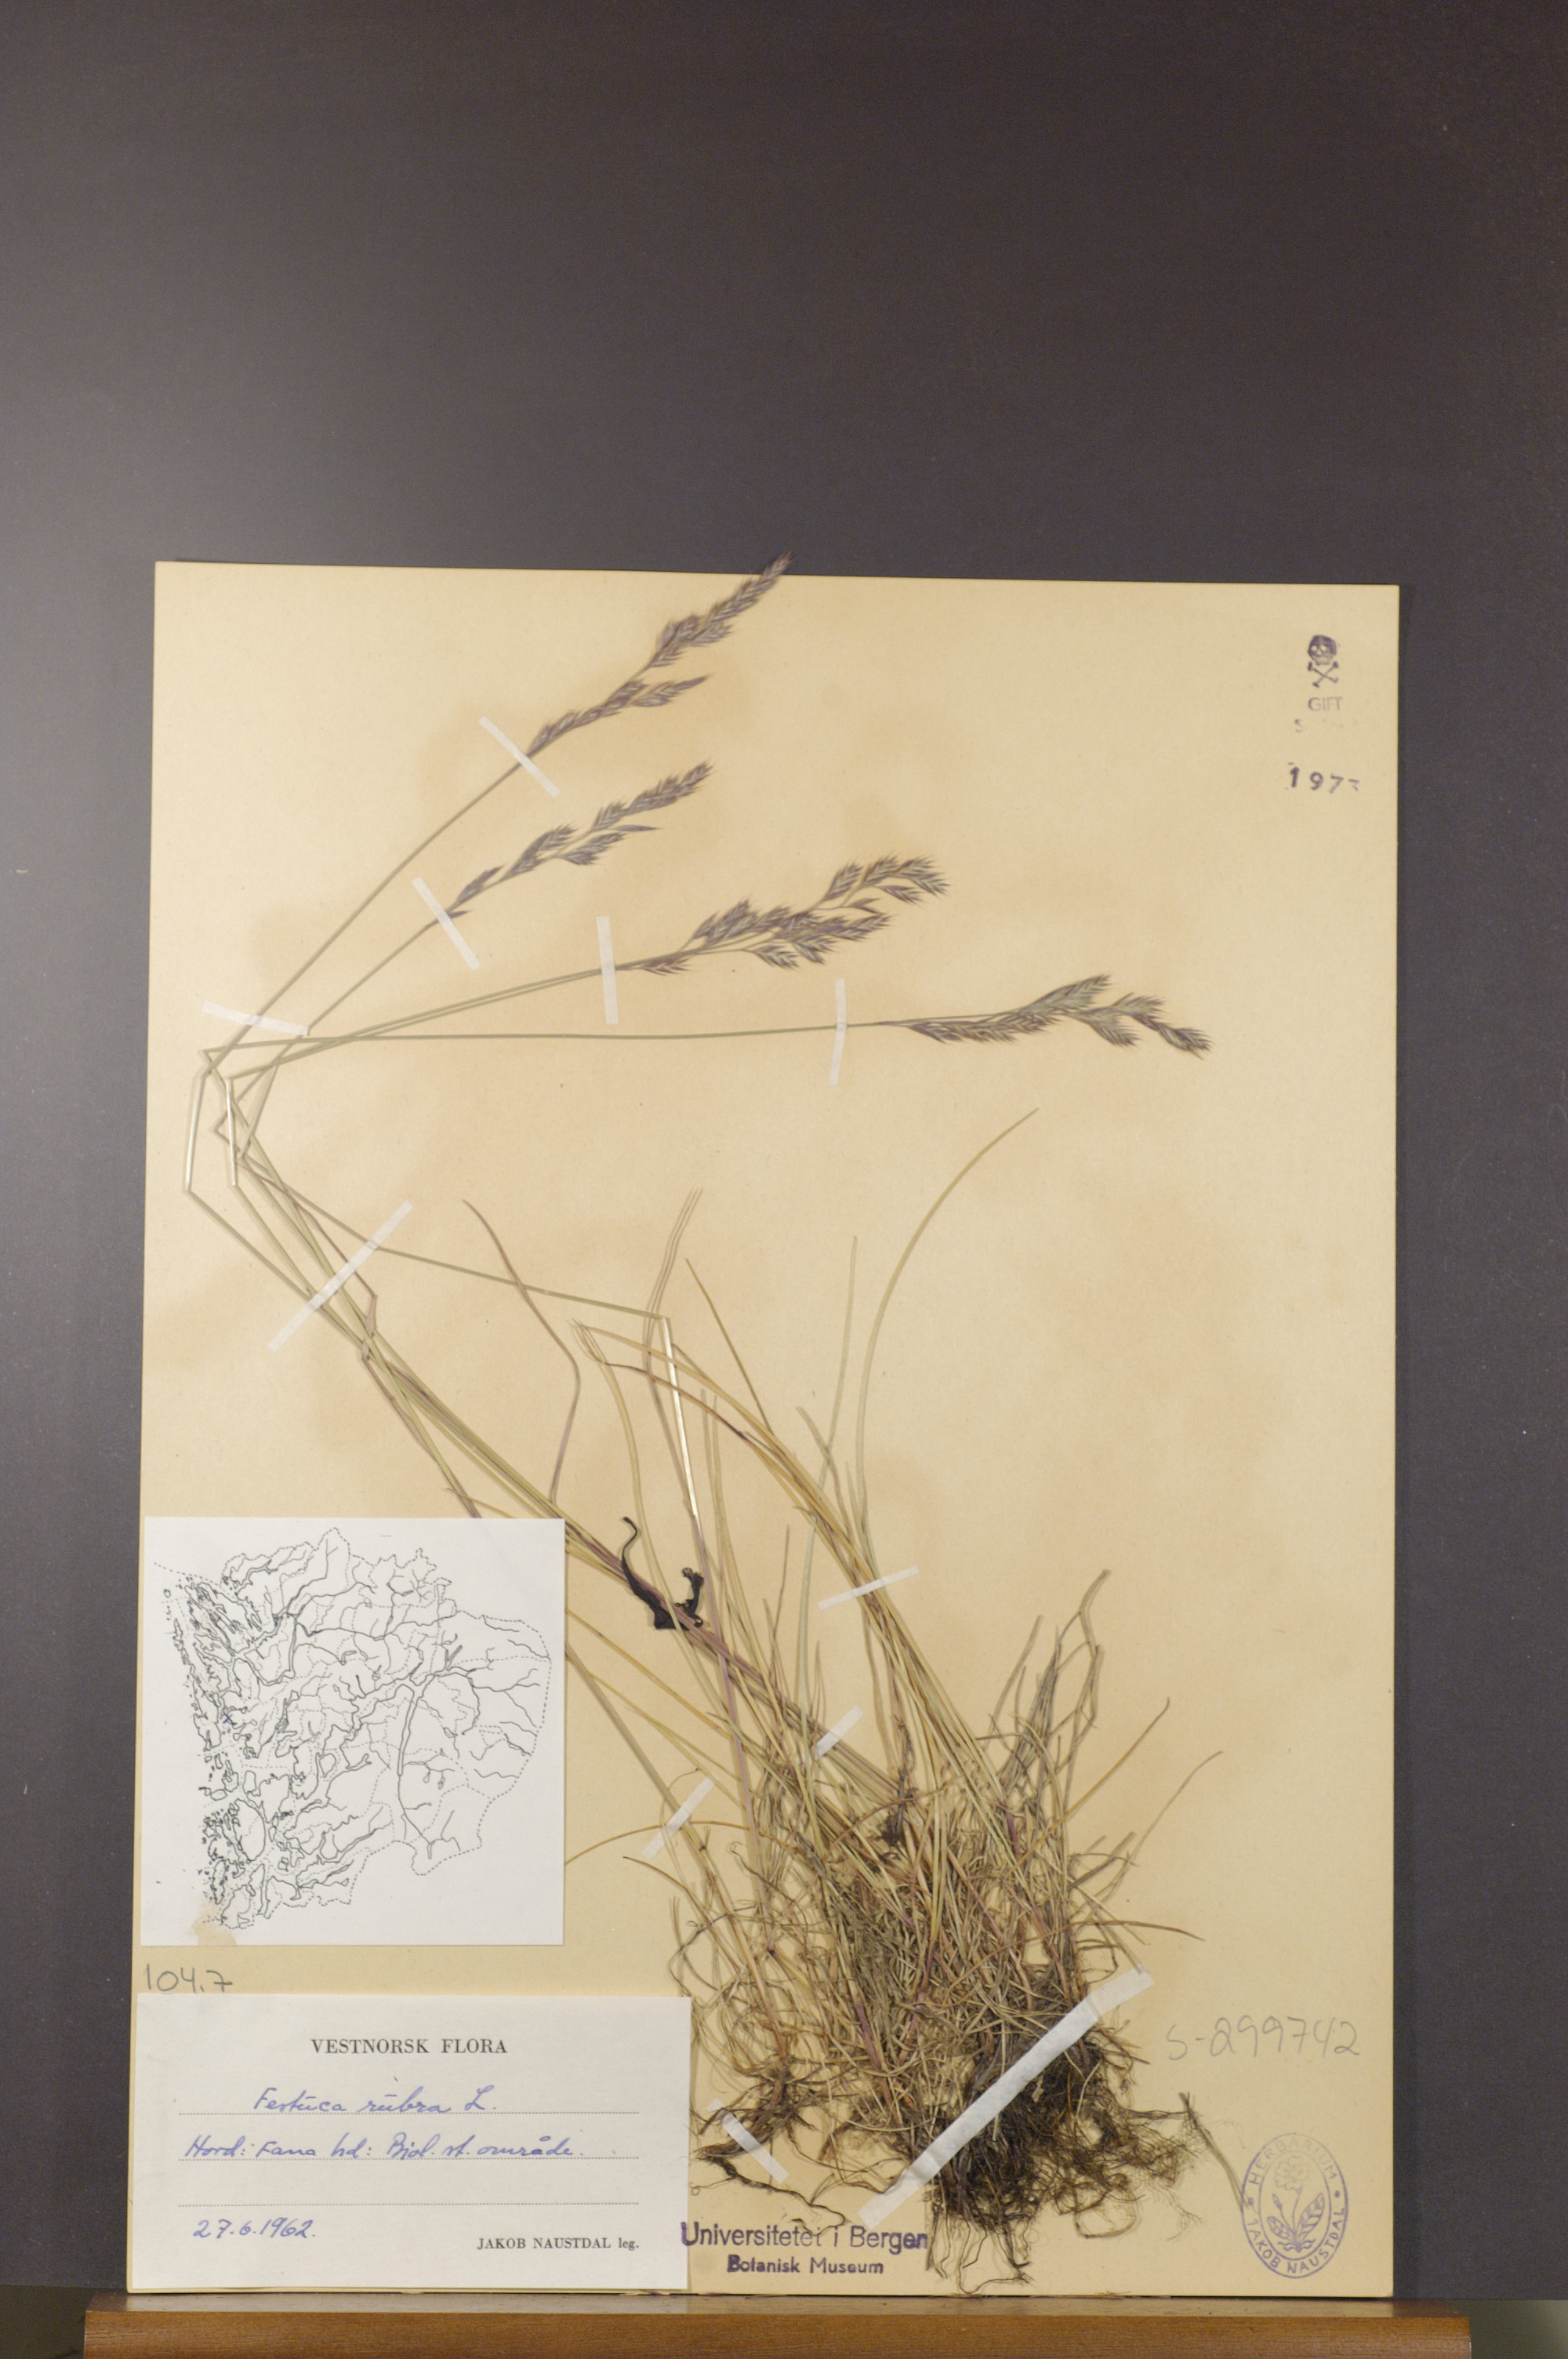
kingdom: Plantae
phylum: Tracheophyta
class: Liliopsida
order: Poales
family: Poaceae
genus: Festuca
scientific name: Festuca rubra
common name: Red fescue
